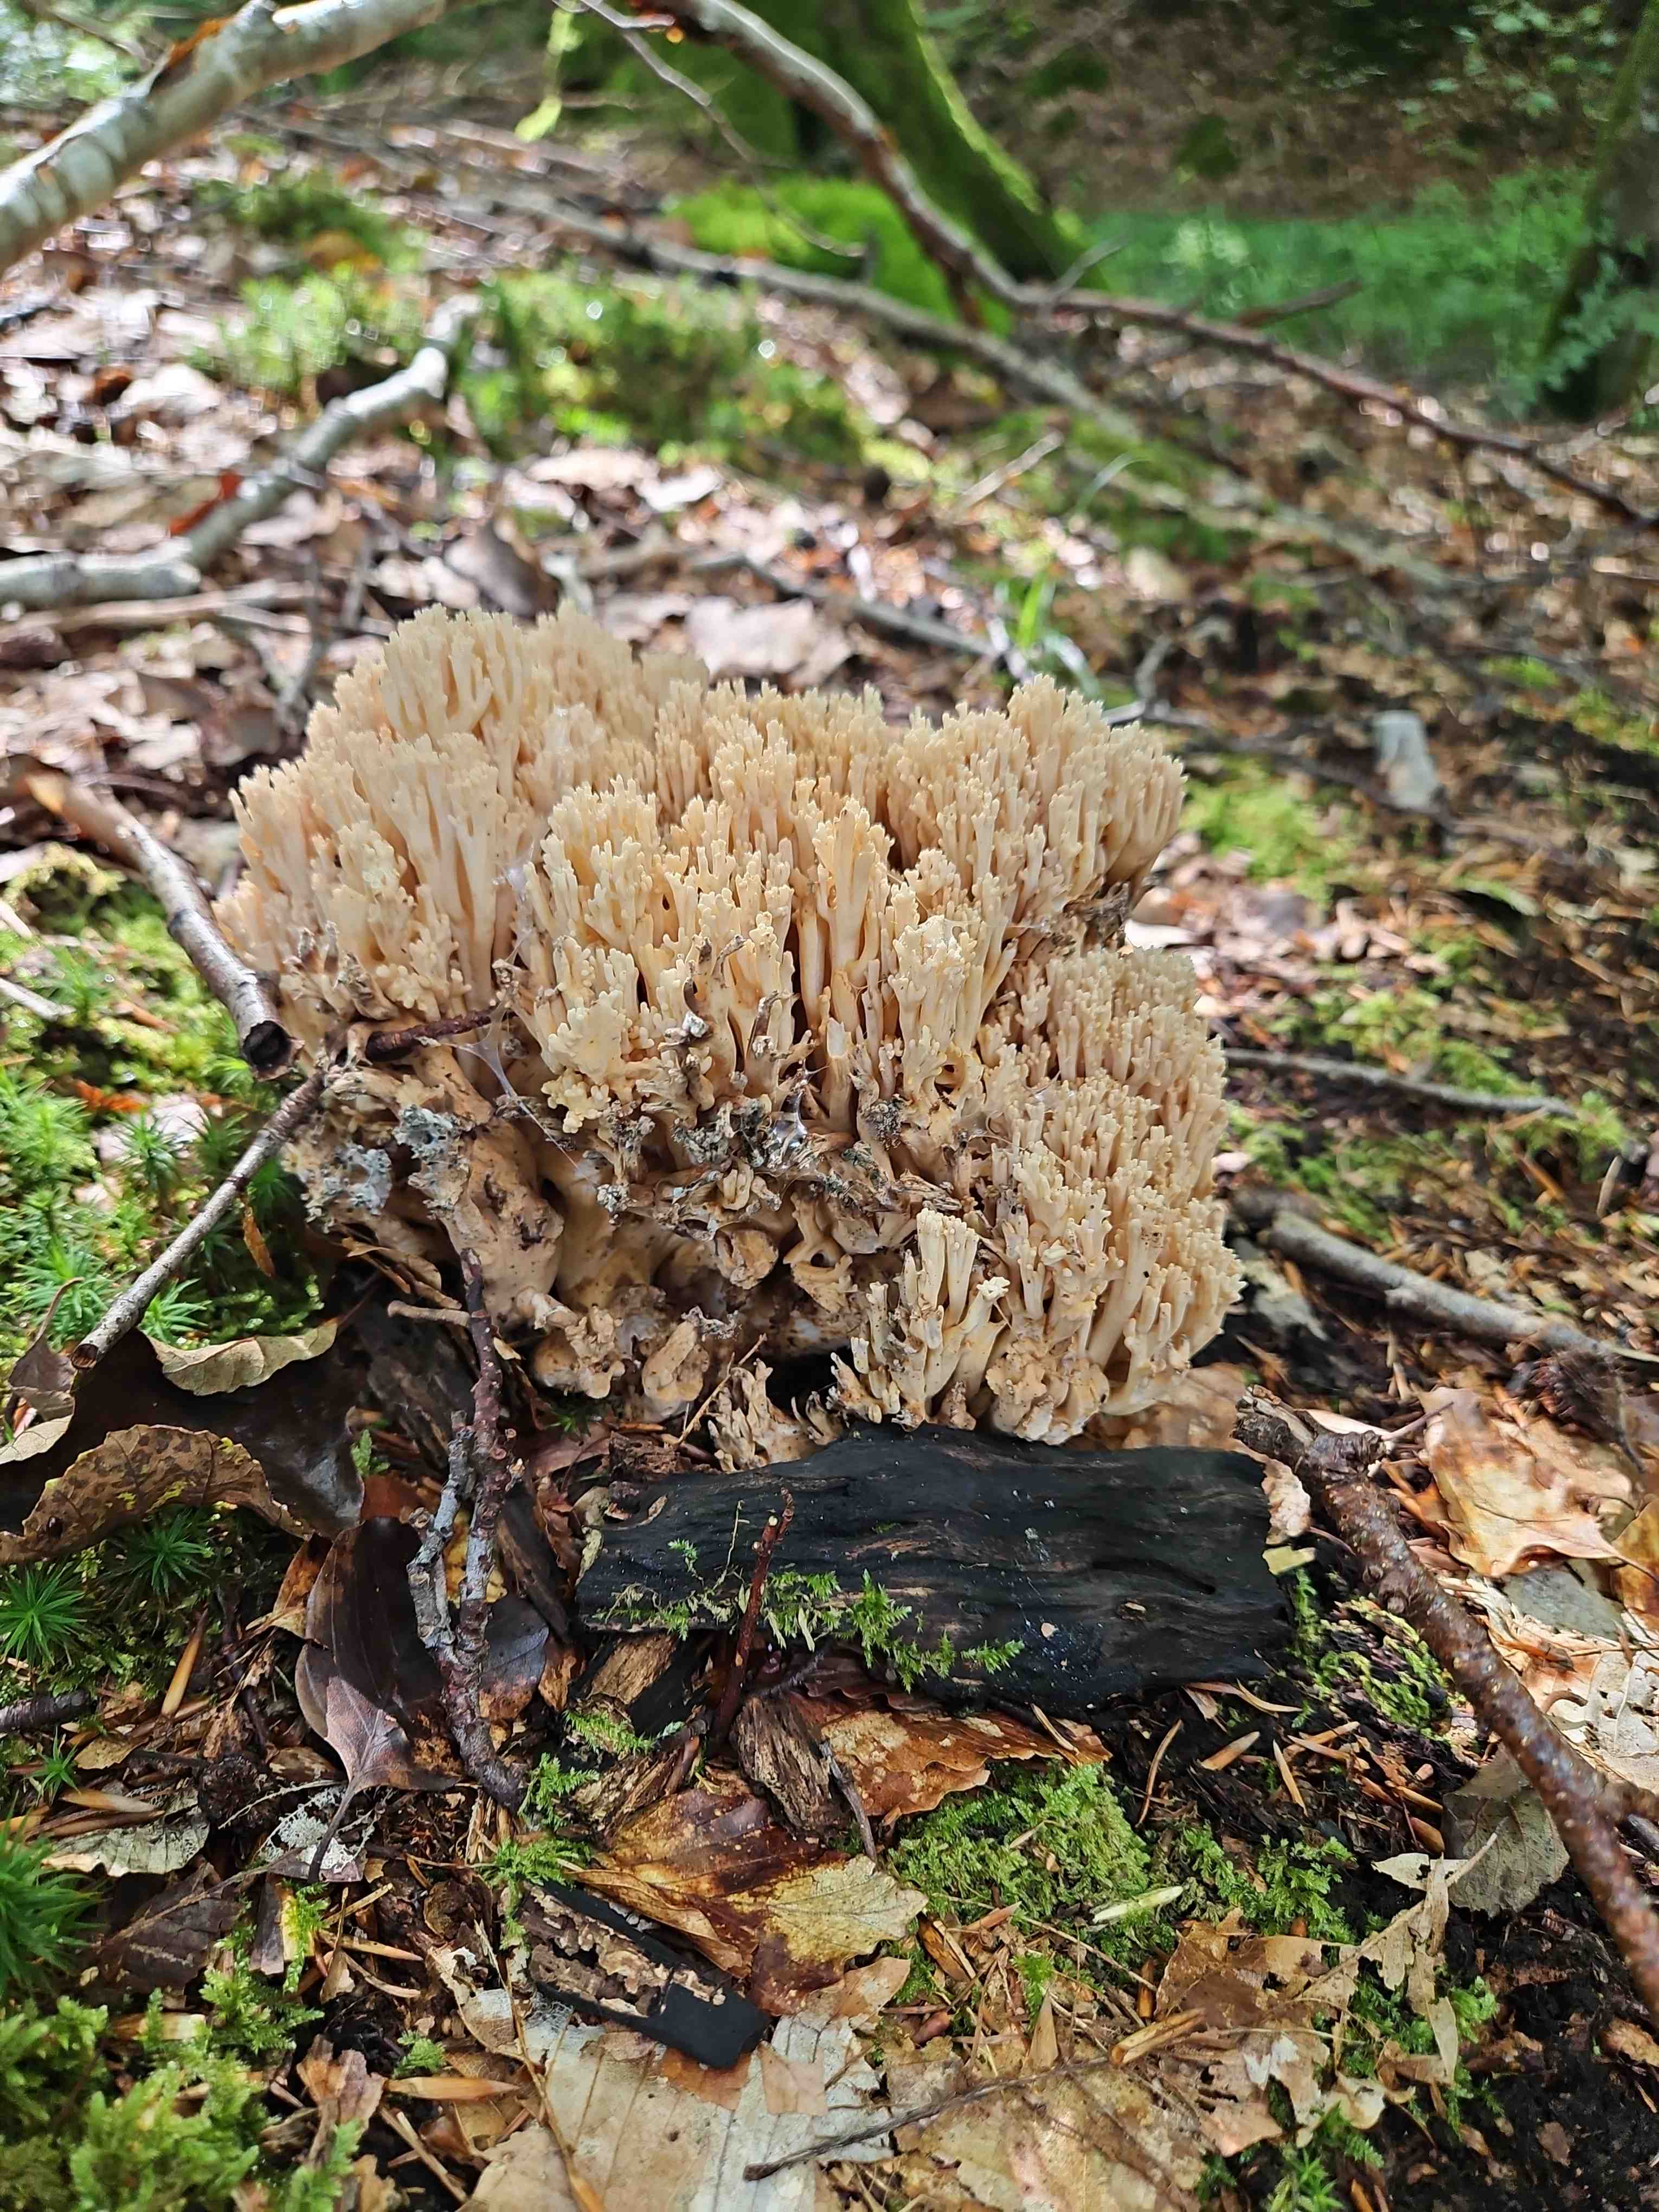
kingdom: Fungi
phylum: Basidiomycota
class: Agaricomycetes
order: Gomphales
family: Gomphaceae
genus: Ramaria
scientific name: Ramaria
